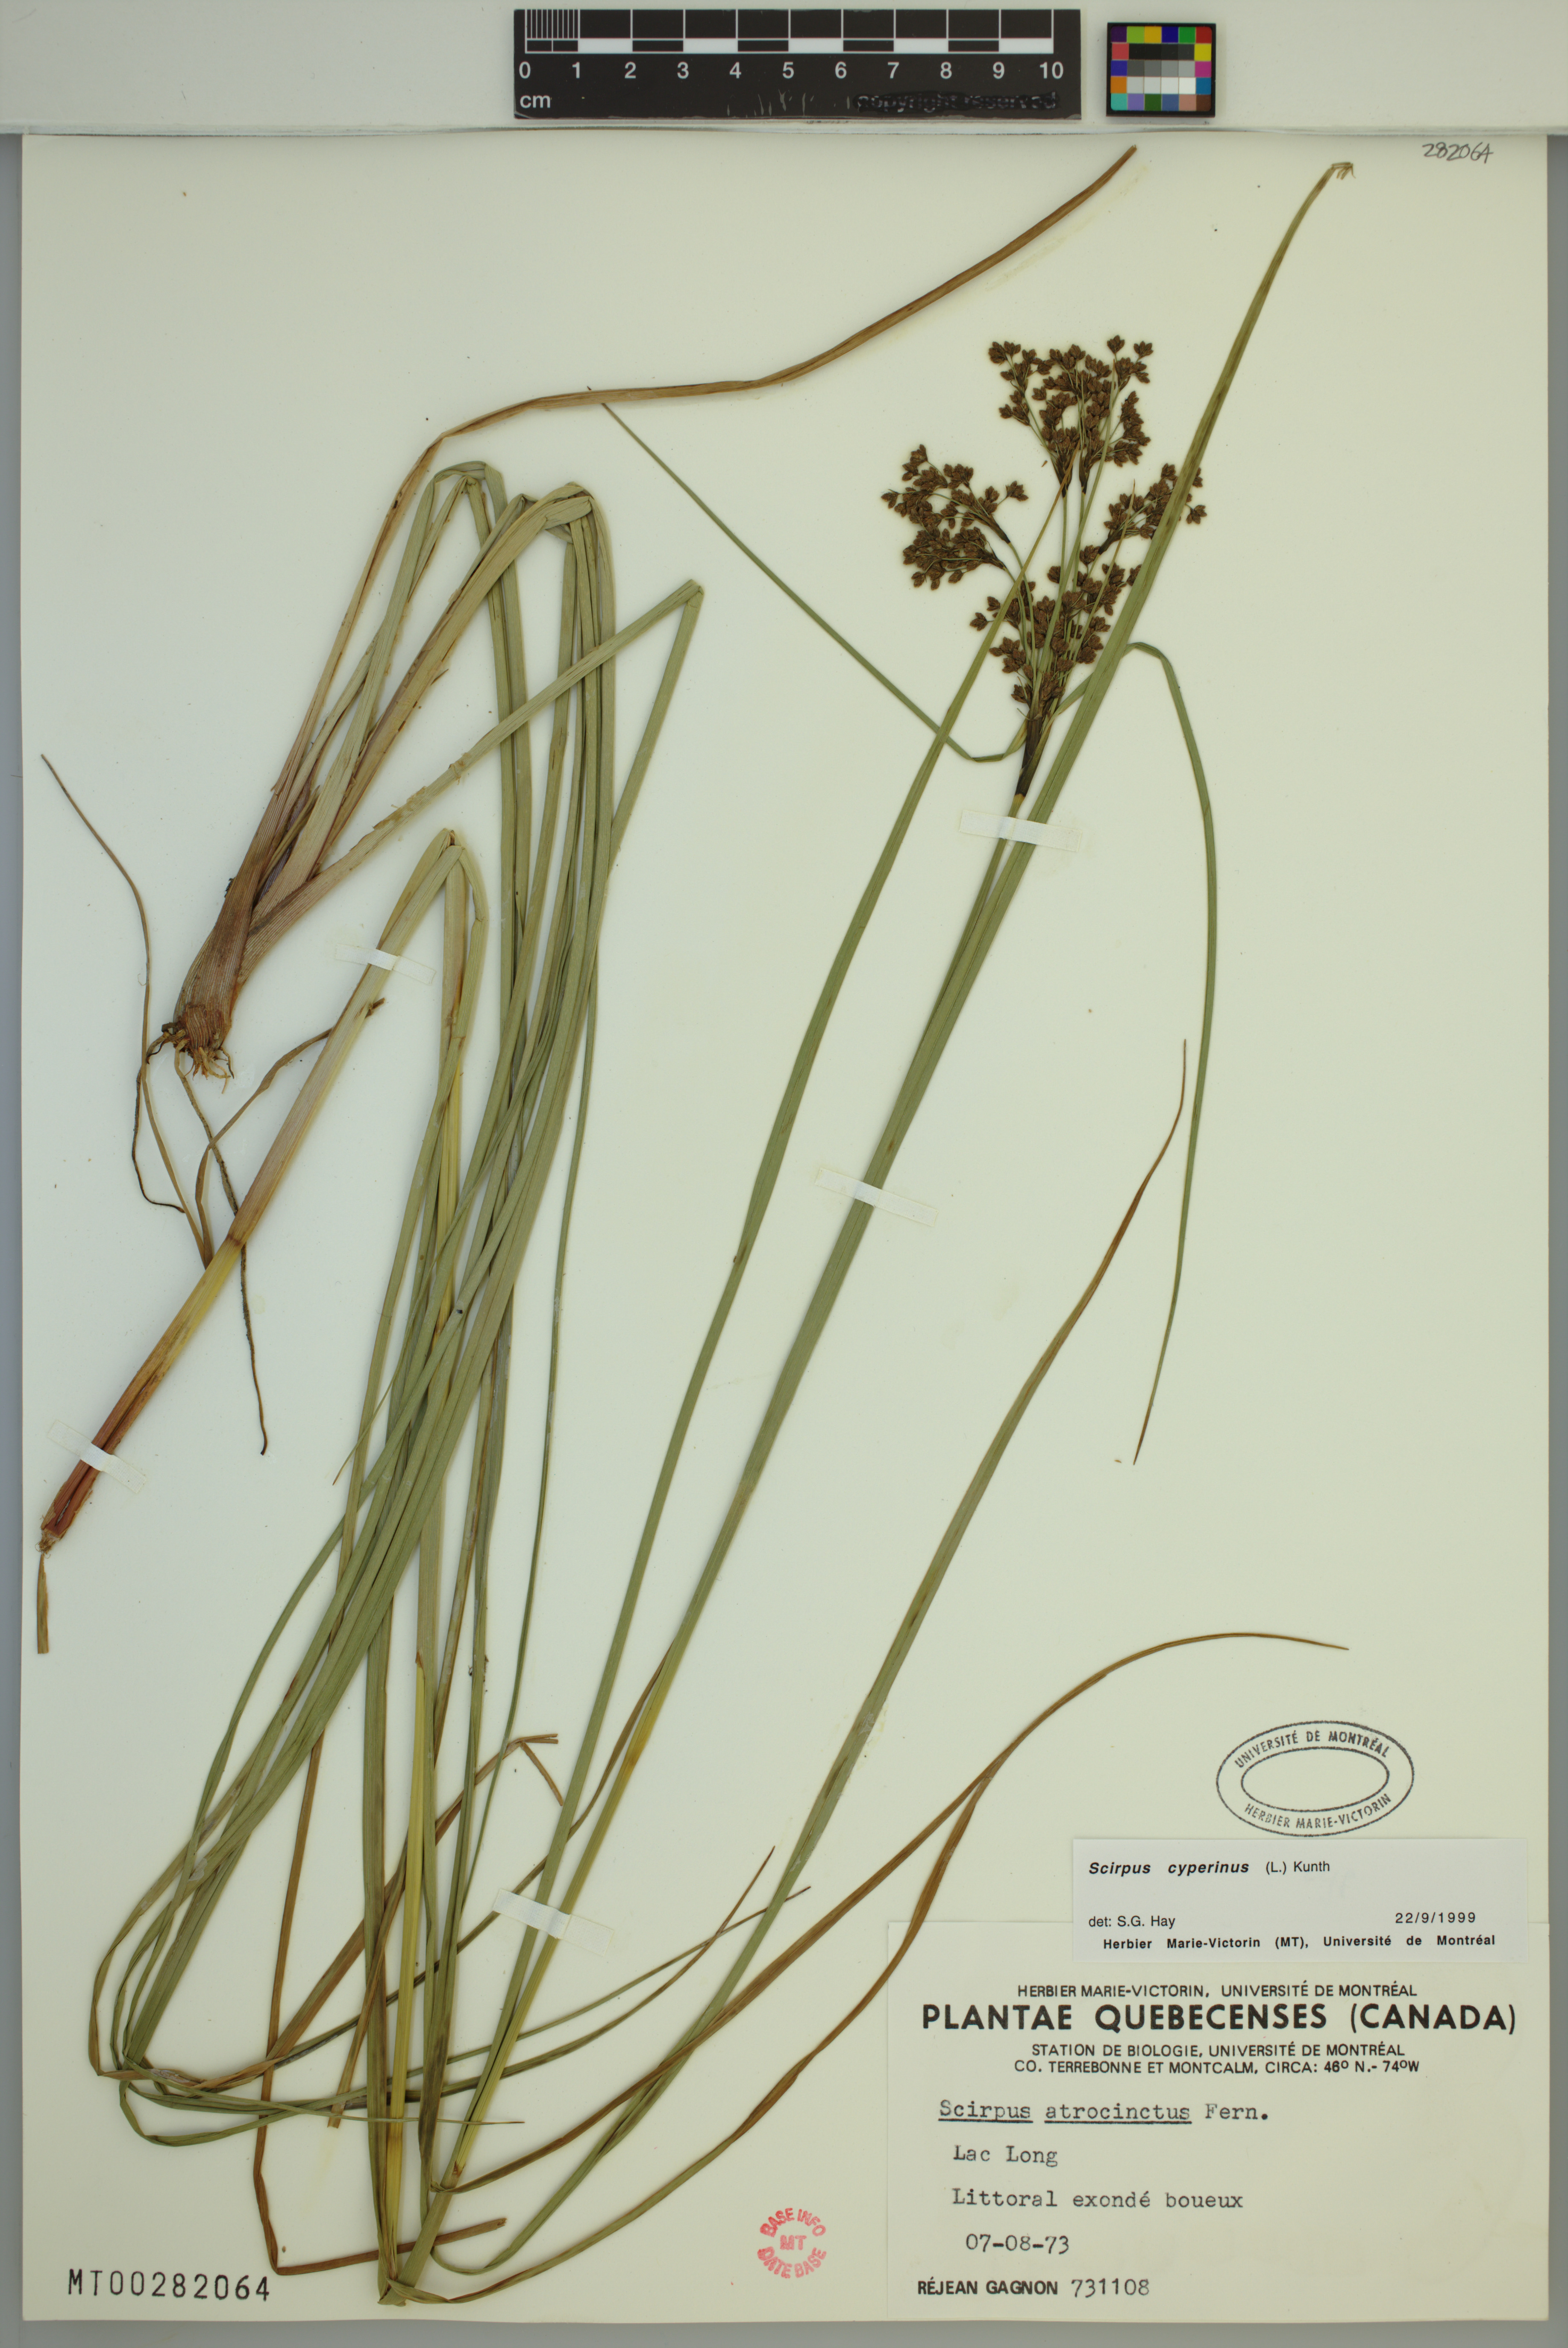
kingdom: Plantae
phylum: Tracheophyta
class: Liliopsida
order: Poales
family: Cyperaceae
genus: Scirpus
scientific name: Scirpus cyperinus
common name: Black-sheathed bulrush
